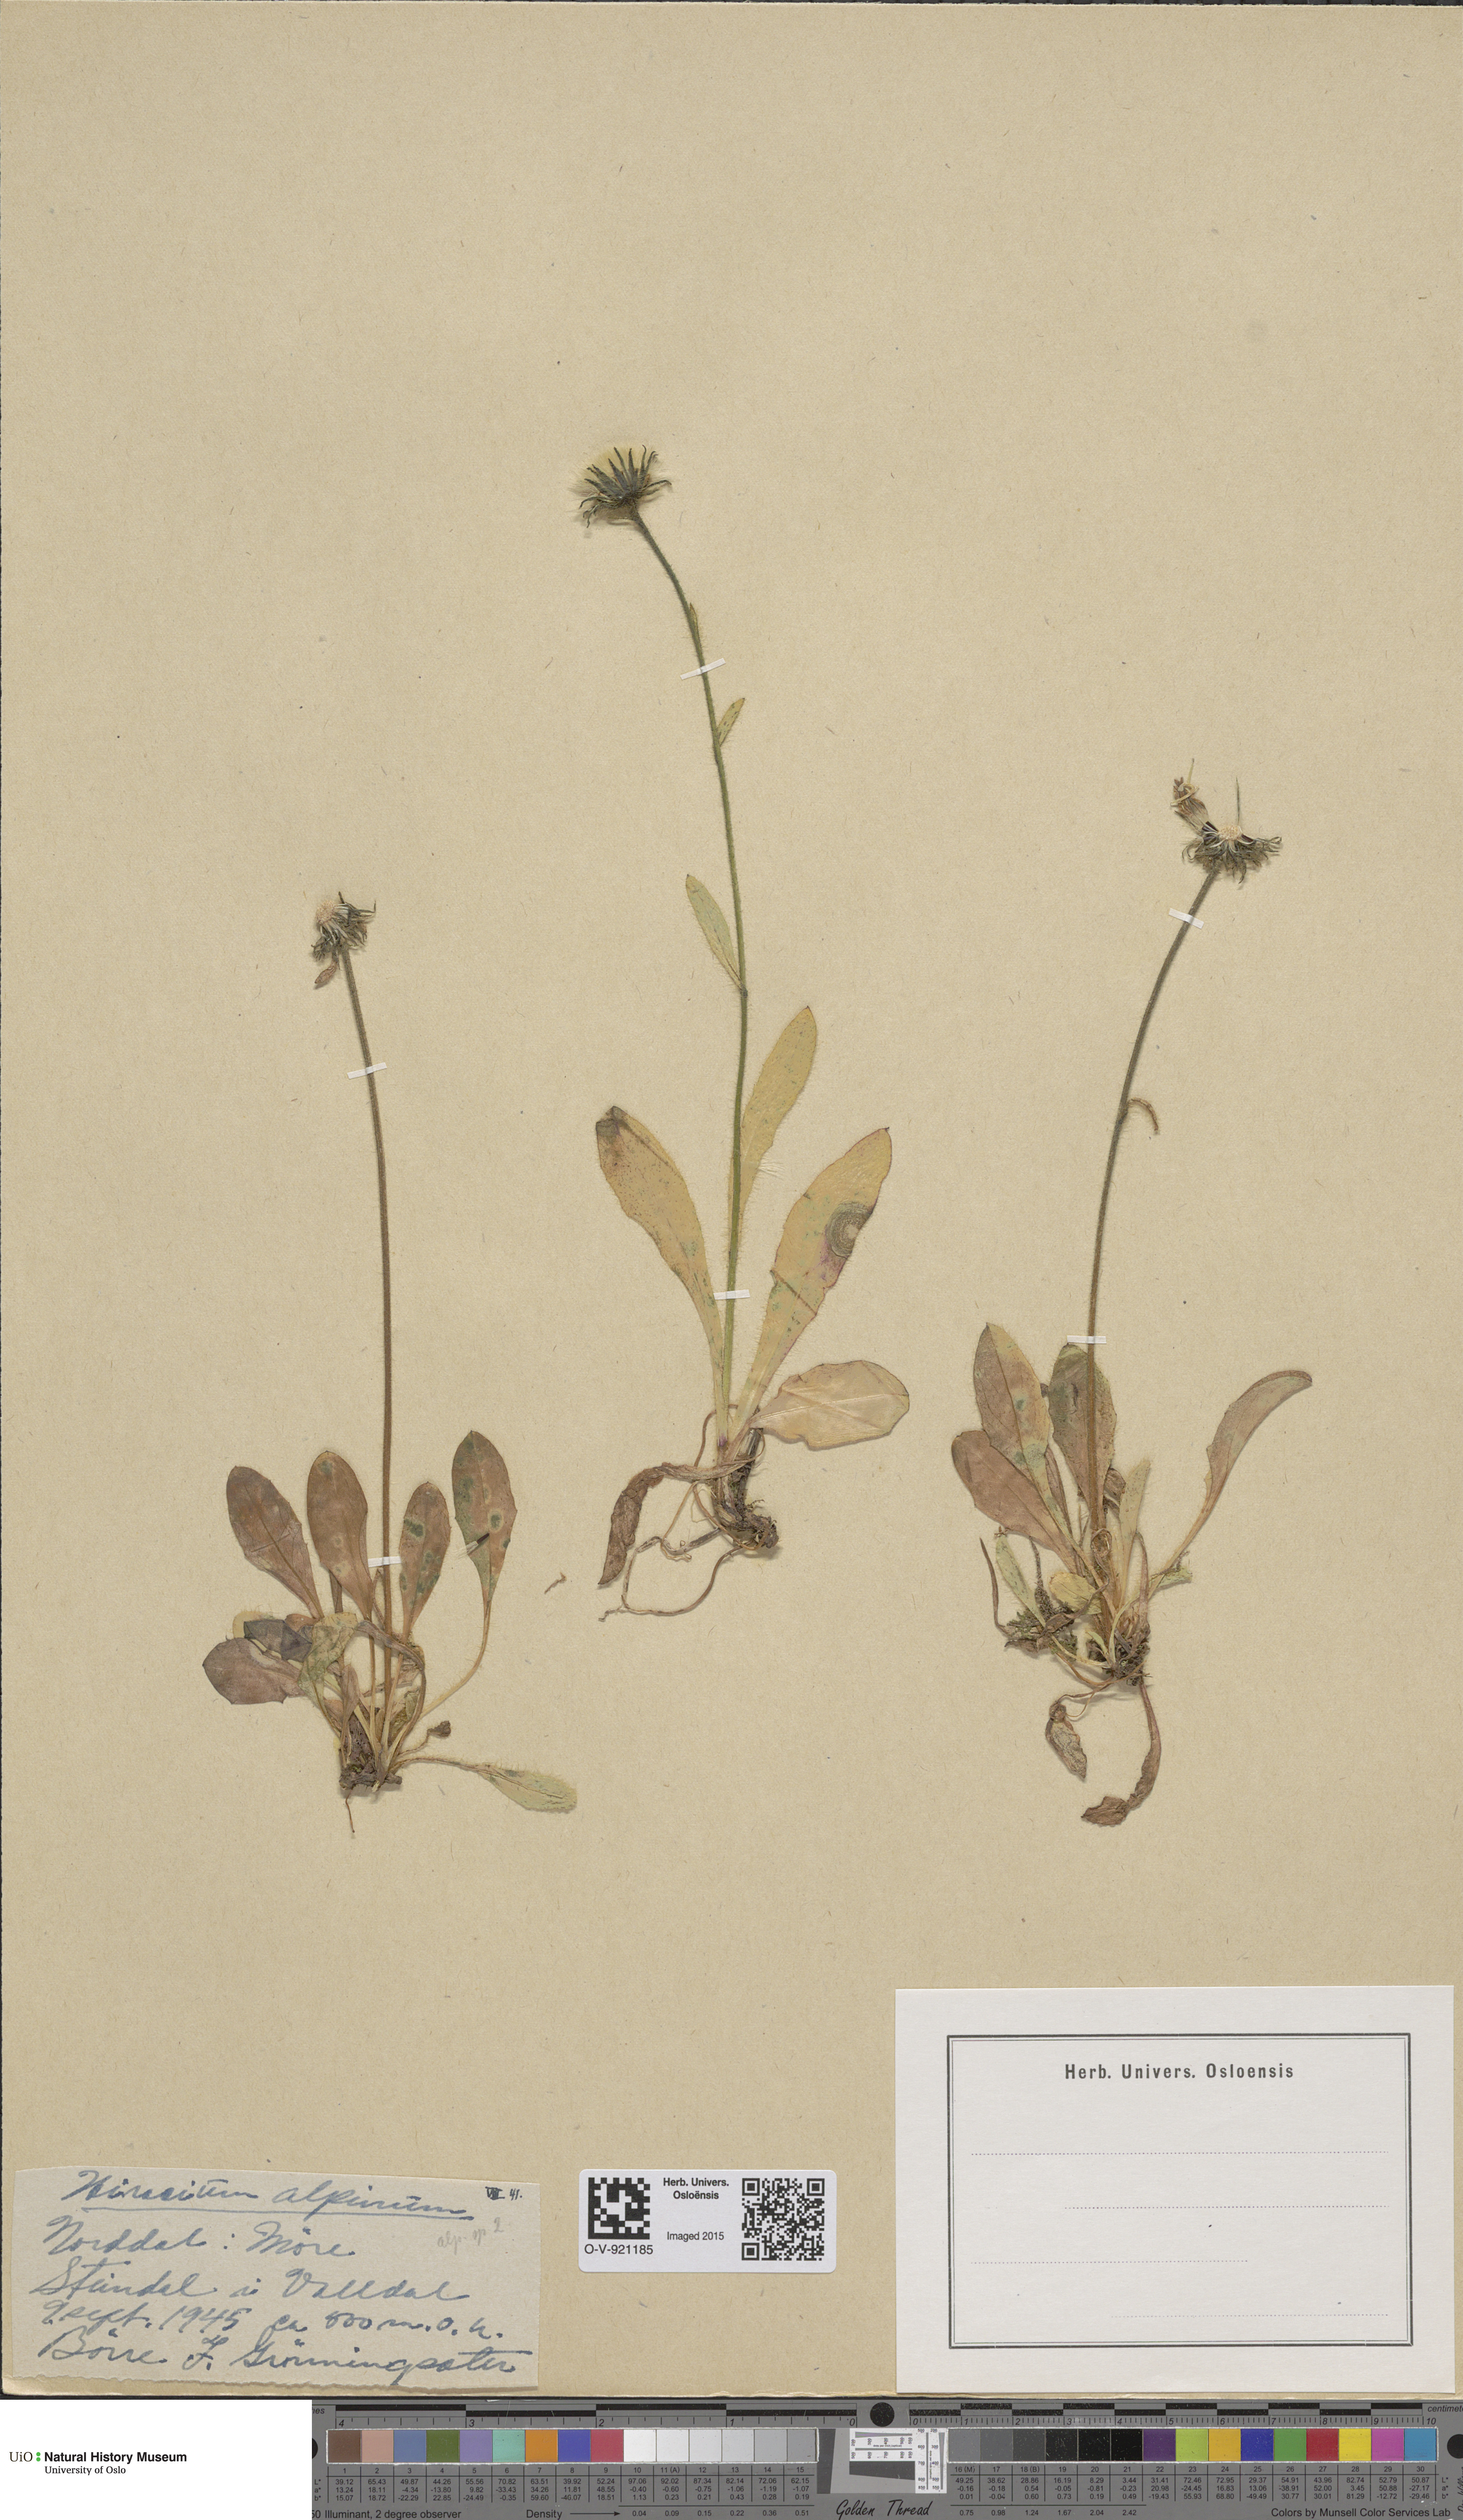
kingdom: Plantae
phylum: Tracheophyta
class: Magnoliopsida
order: Asterales
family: Asteraceae
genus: Hieracium
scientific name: Hieracium alpinum
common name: Alpine hawkweed
